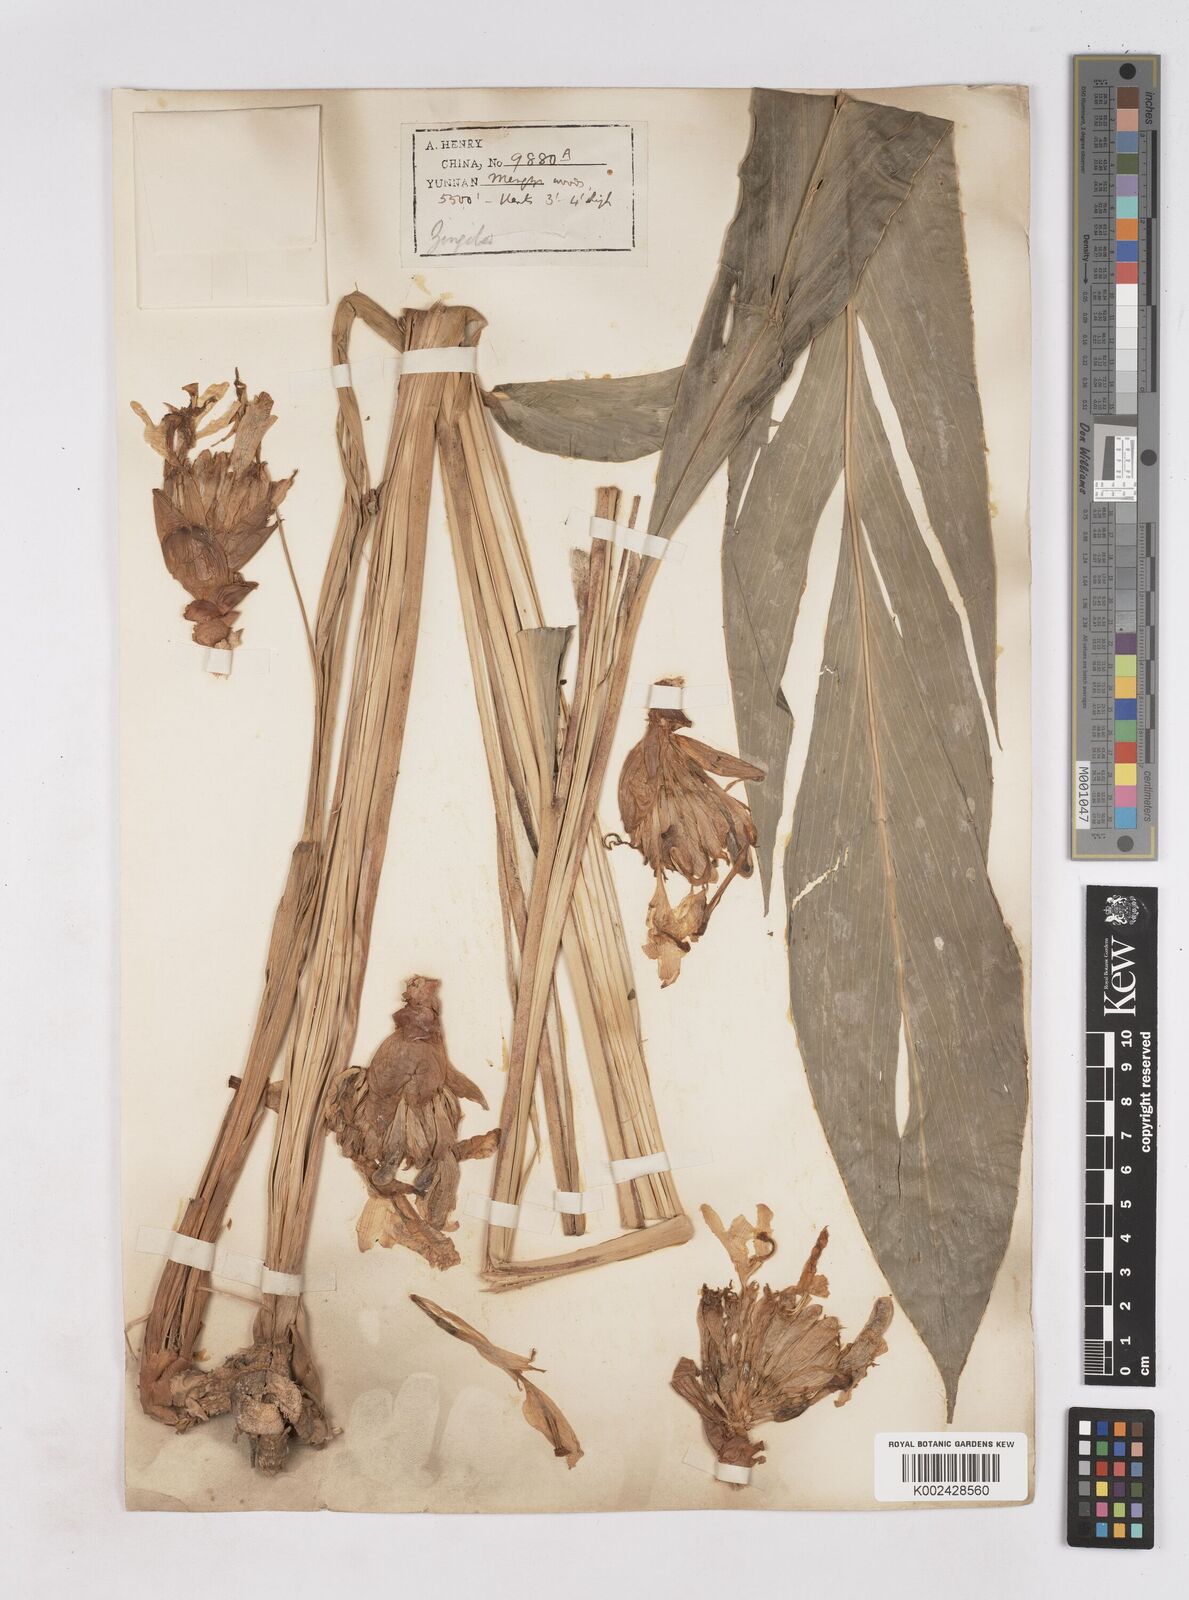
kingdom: Plantae
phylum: Tracheophyta
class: Liliopsida
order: Zingiberales
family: Zingiberaceae
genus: Zingiber
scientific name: Zingiber
